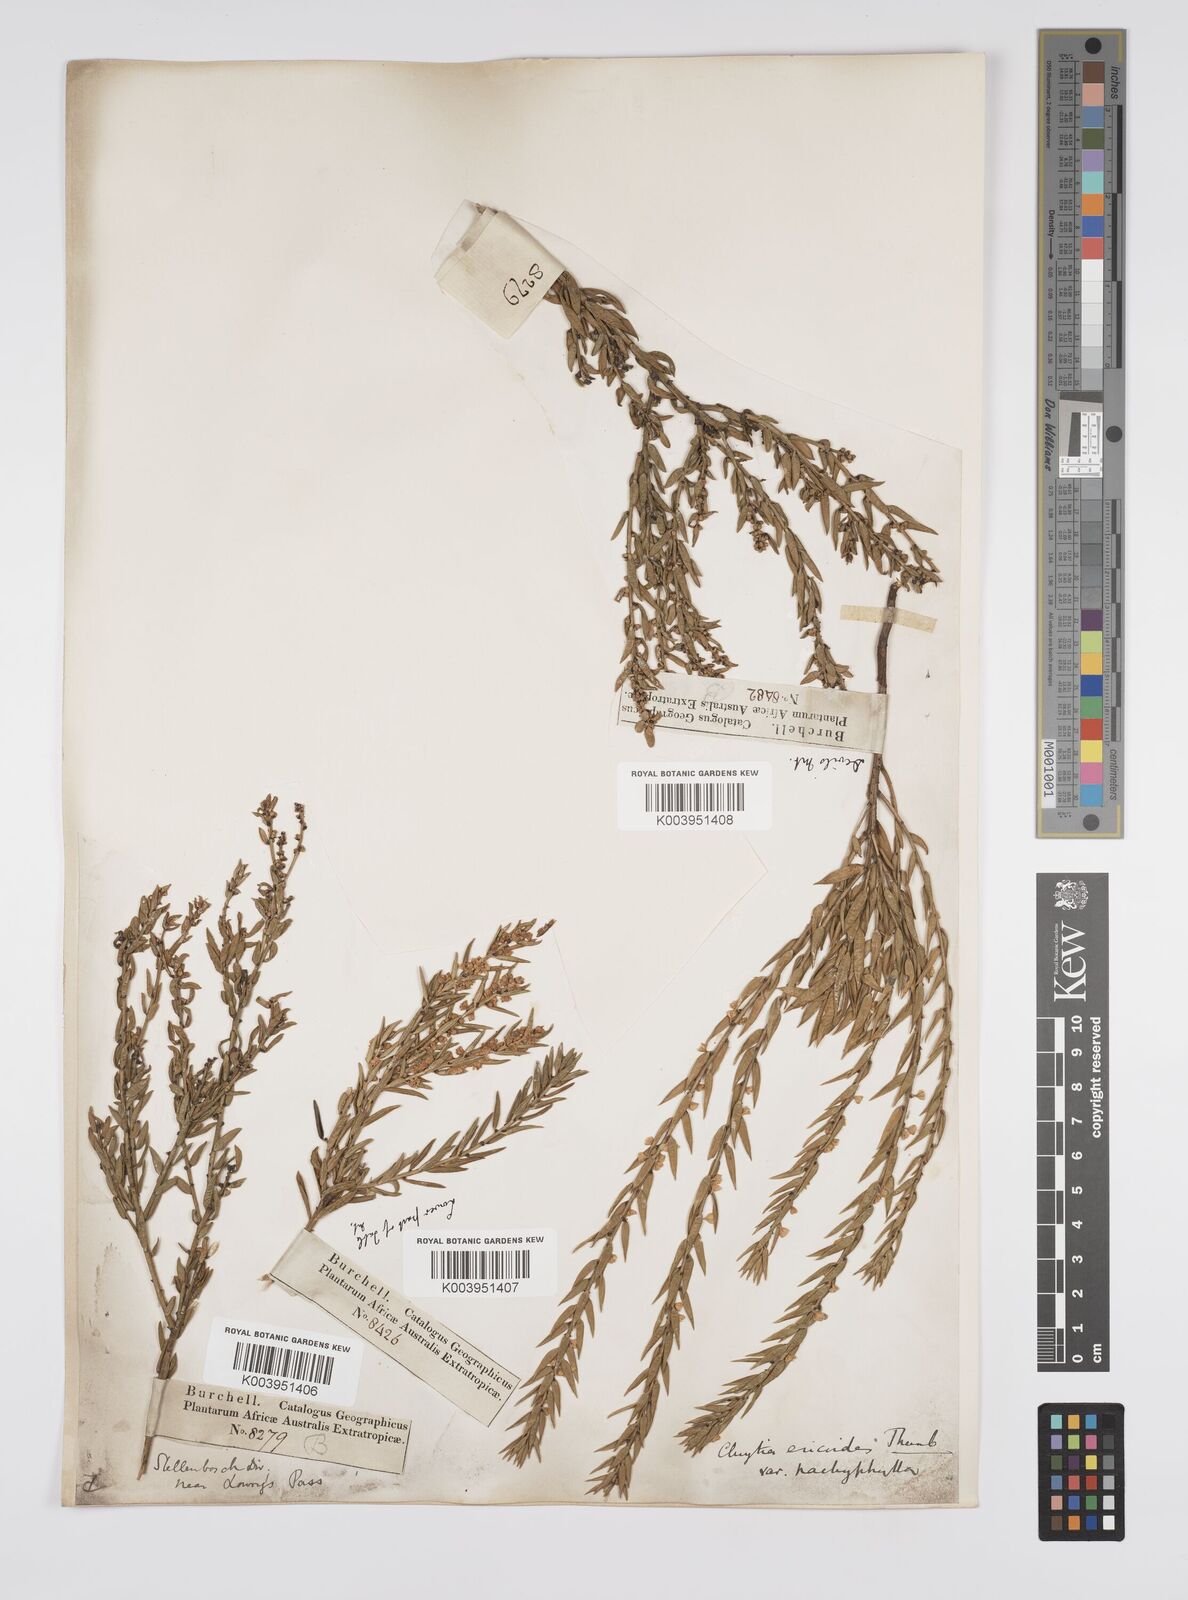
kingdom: Plantae
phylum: Tracheophyta
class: Magnoliopsida
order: Malpighiales
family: Peraceae
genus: Clutia
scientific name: Clutia
